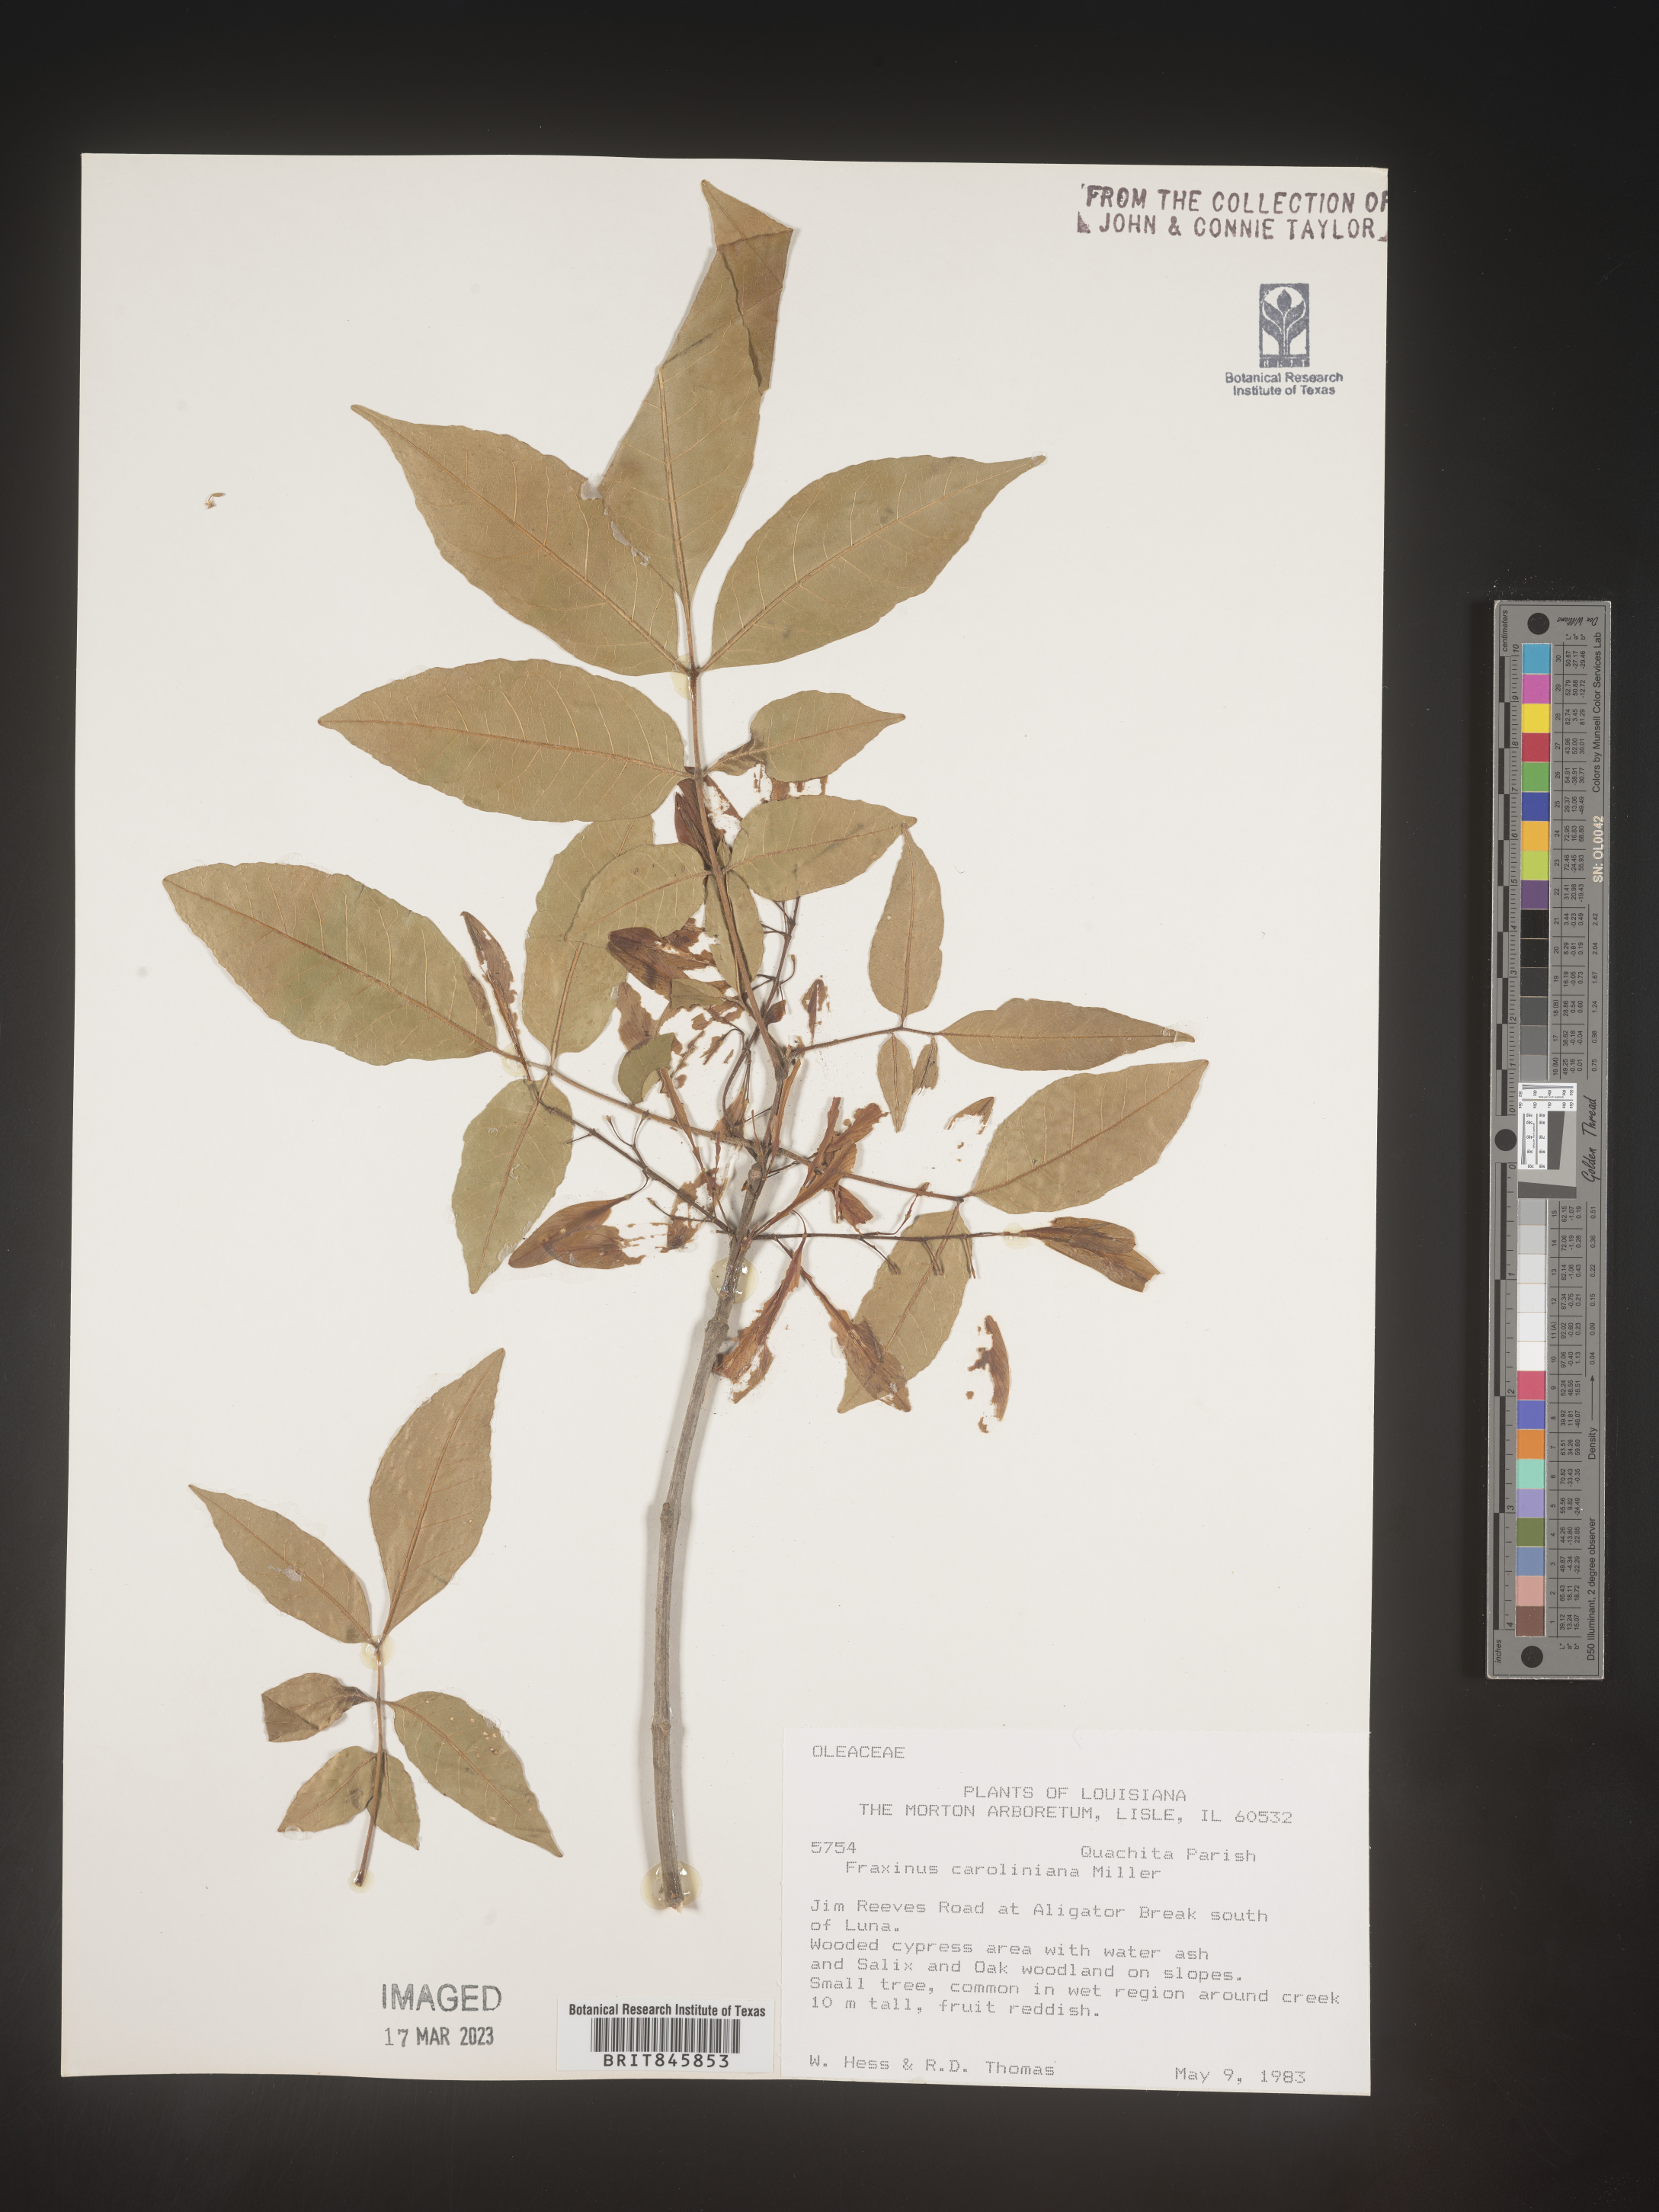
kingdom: Plantae
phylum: Tracheophyta
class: Magnoliopsida
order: Lamiales
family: Oleaceae
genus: Fraxinus
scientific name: Fraxinus caroliniana
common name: Carolina ash
